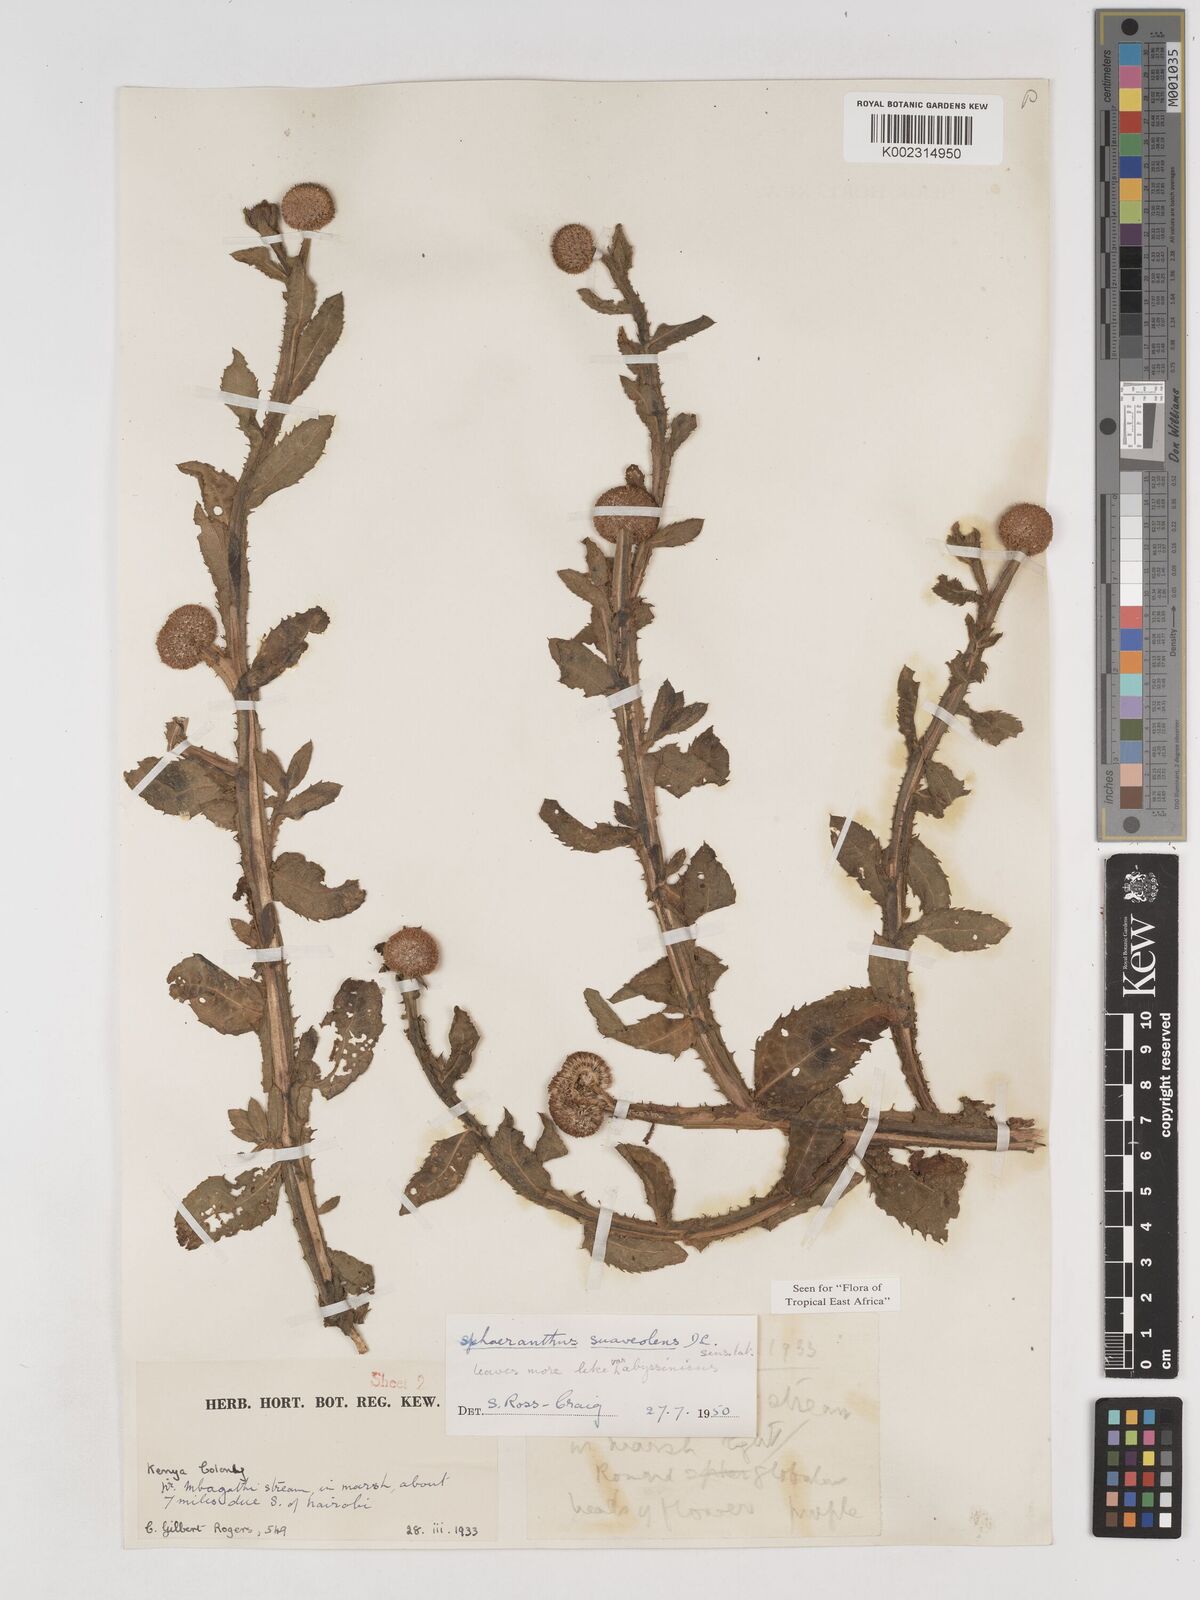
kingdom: Plantae
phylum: Tracheophyta
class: Magnoliopsida
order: Asterales
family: Asteraceae
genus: Sphaeranthus
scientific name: Sphaeranthus suaveolens
